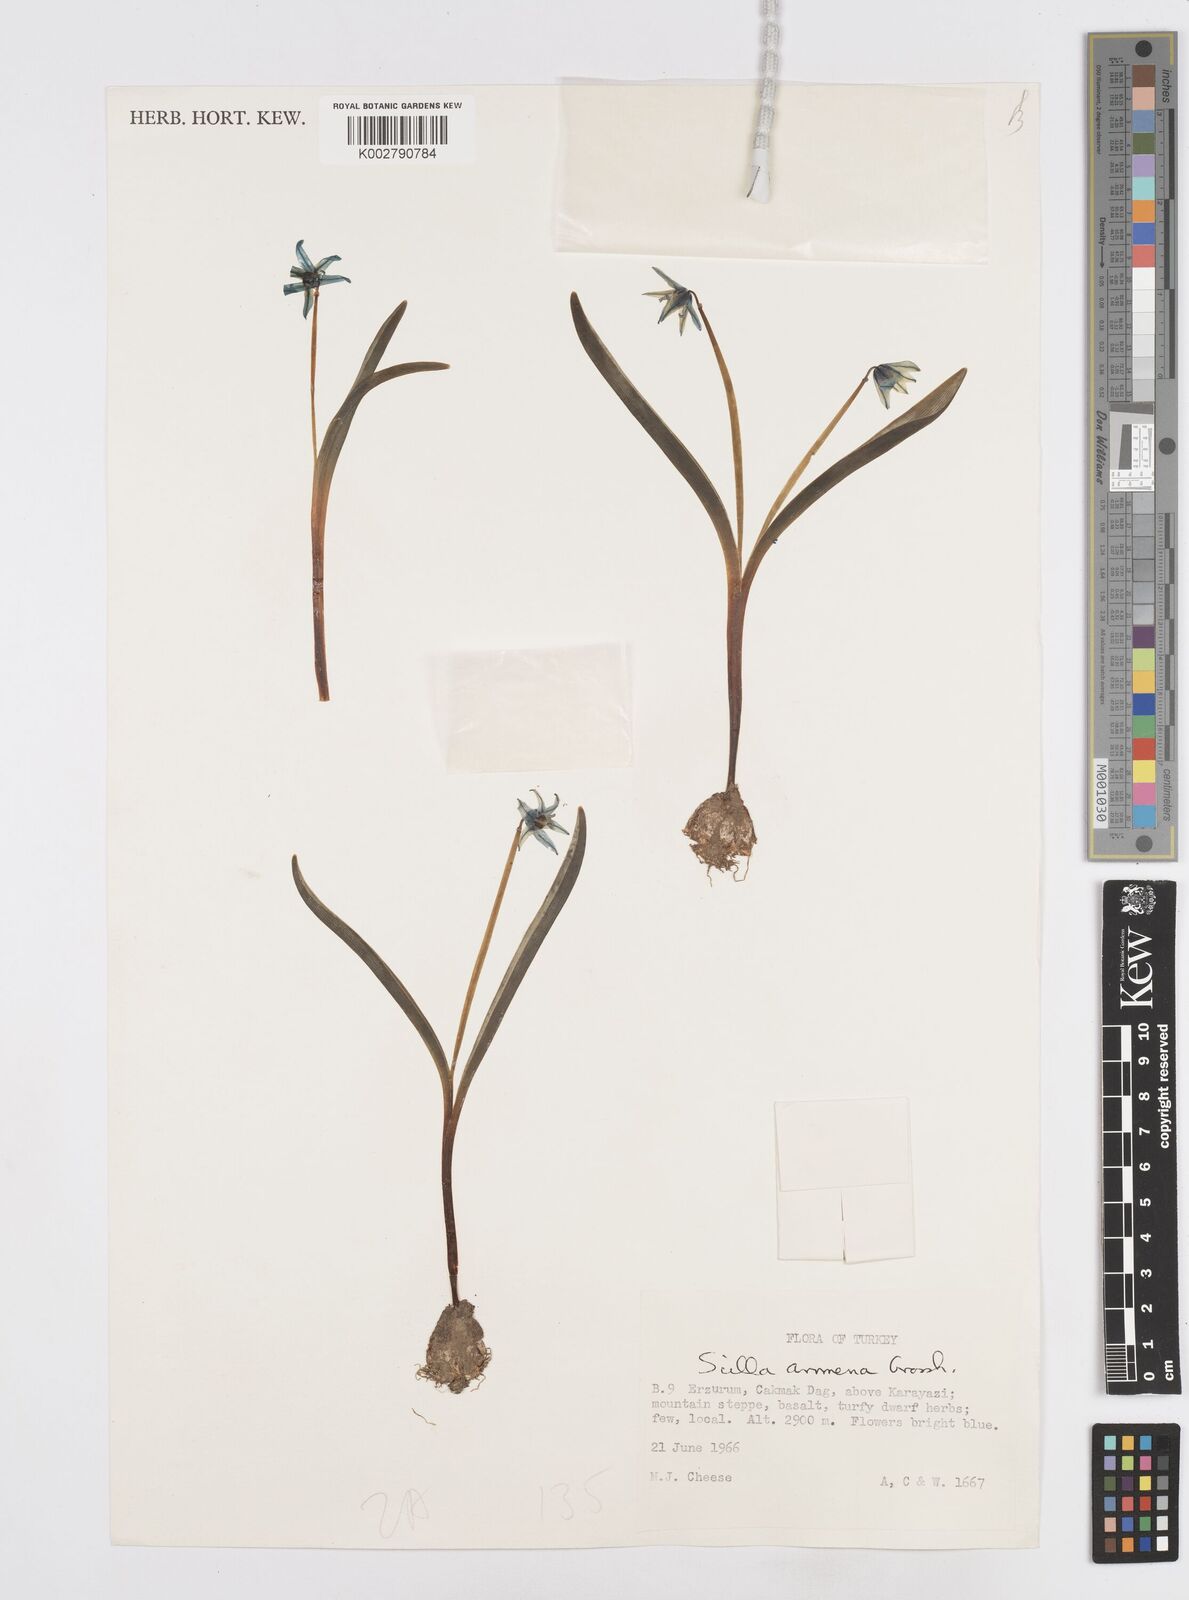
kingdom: Plantae
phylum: Tracheophyta
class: Liliopsida
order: Asparagales
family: Asparagaceae
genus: Scilla
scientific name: Scilla siberica
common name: Siberian squill
